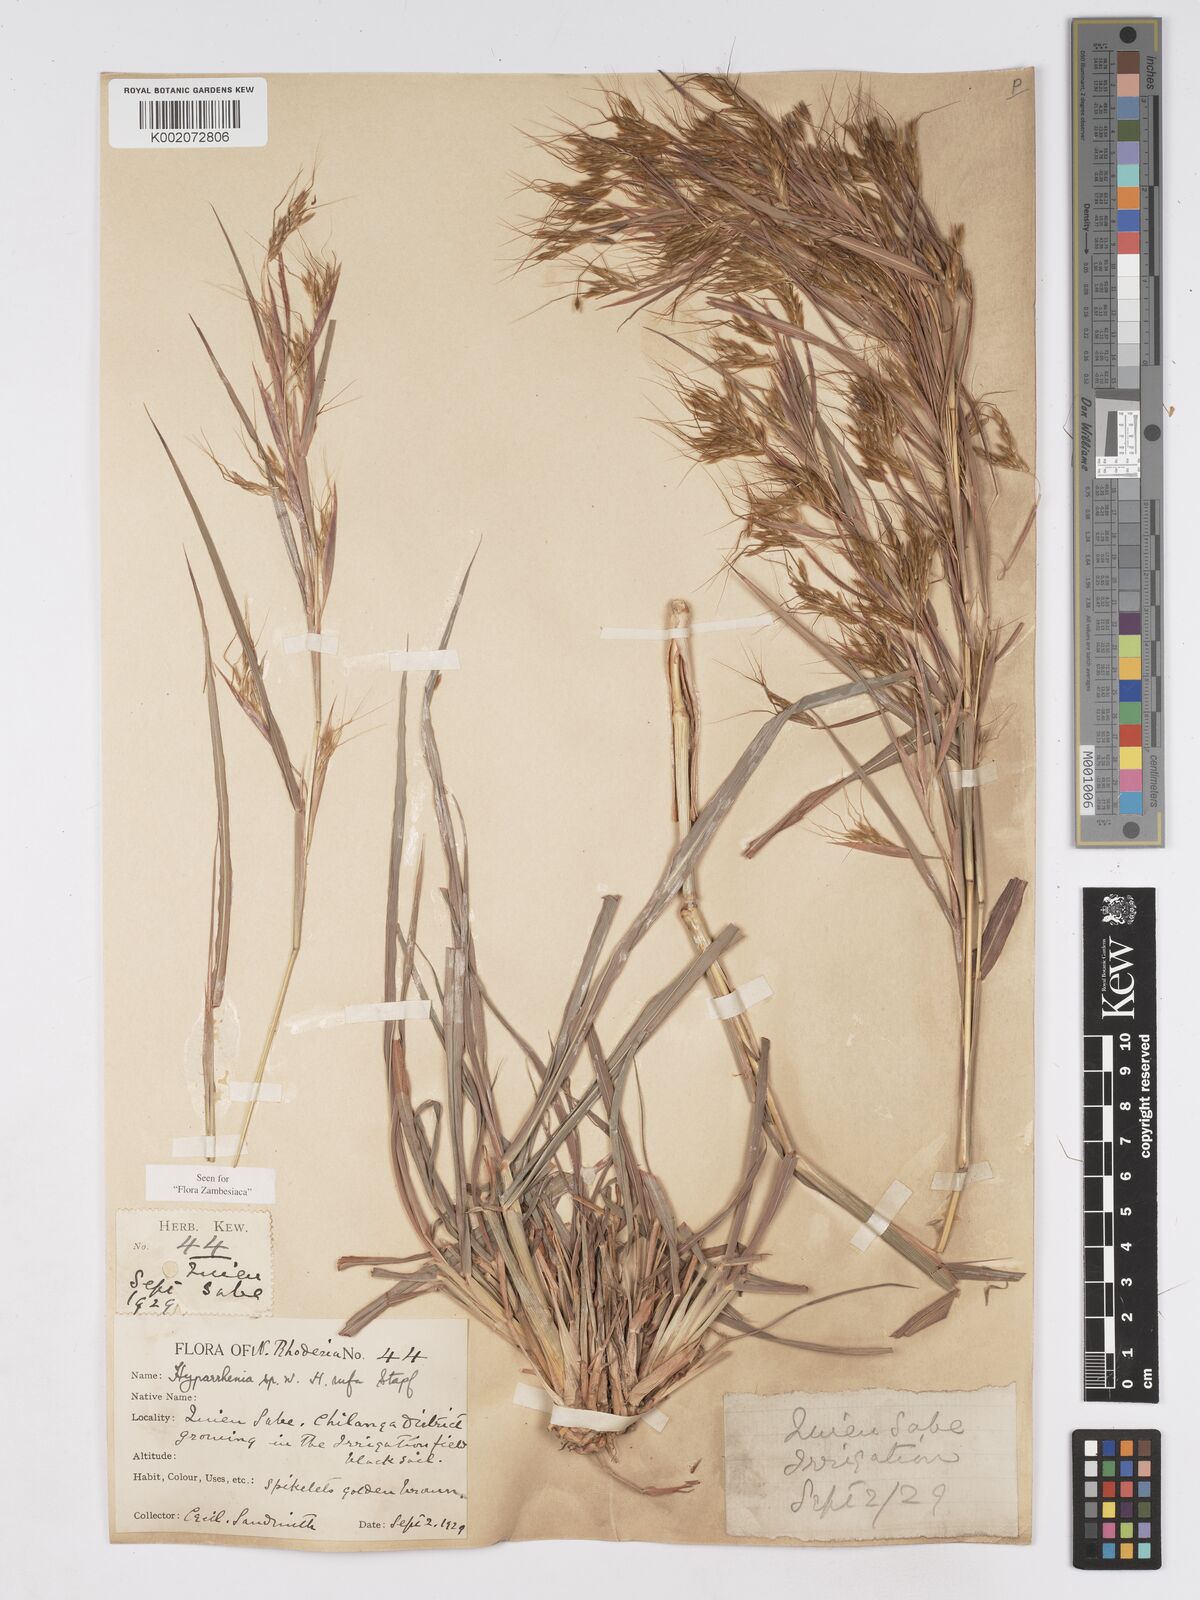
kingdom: Plantae
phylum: Tracheophyta
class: Liliopsida
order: Poales
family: Poaceae
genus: Hyparrhenia
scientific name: Hyparrhenia rufa
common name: Jaraguagrass
